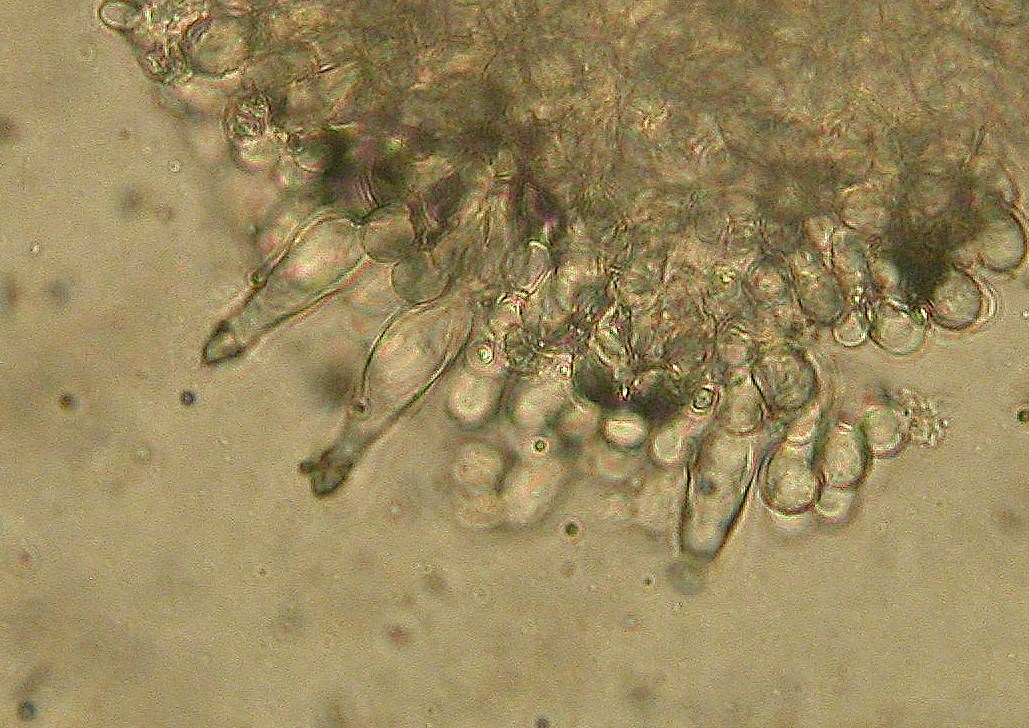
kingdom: Fungi
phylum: Basidiomycota
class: Agaricomycetes
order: Agaricales
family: Tricholomataceae
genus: Melanoleuca
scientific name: Melanoleuca cognata
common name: gyldengrå munkehat
